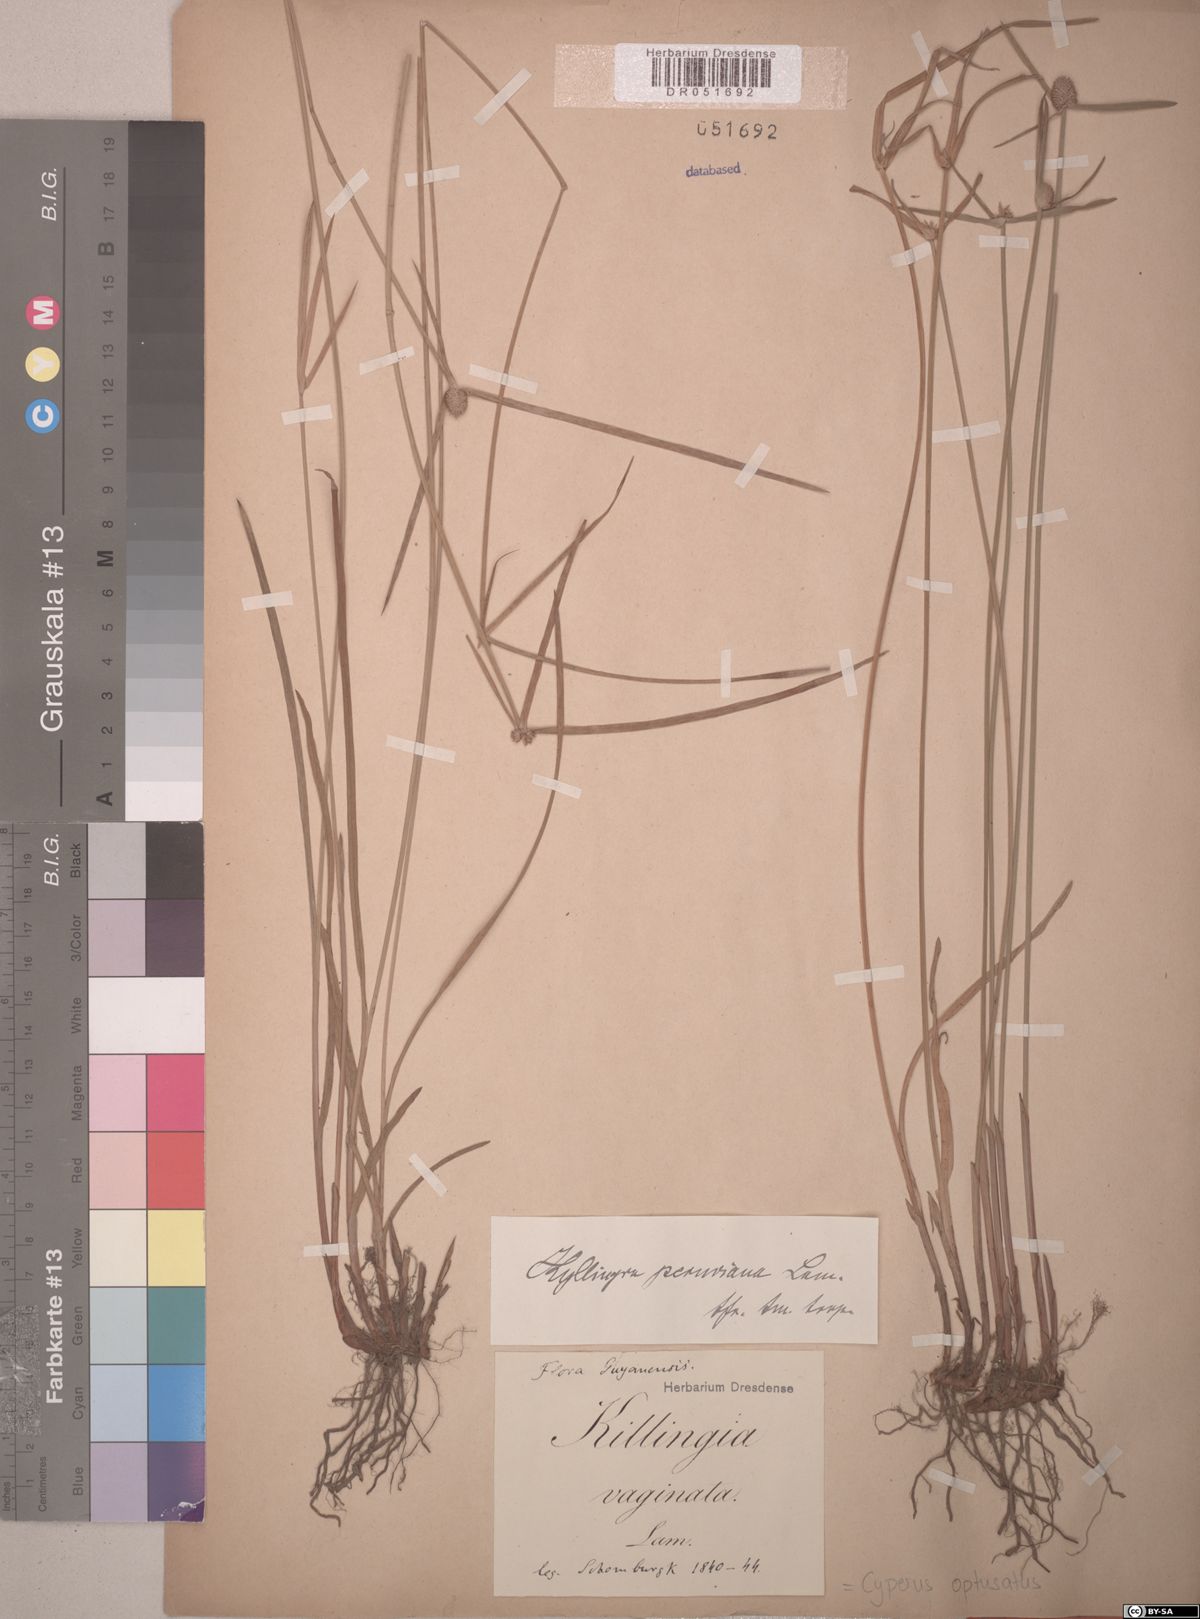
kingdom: Plantae
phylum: Tracheophyta
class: Liliopsida
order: Poales
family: Cyperaceae
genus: Cyperus
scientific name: Cyperus obtusatus
